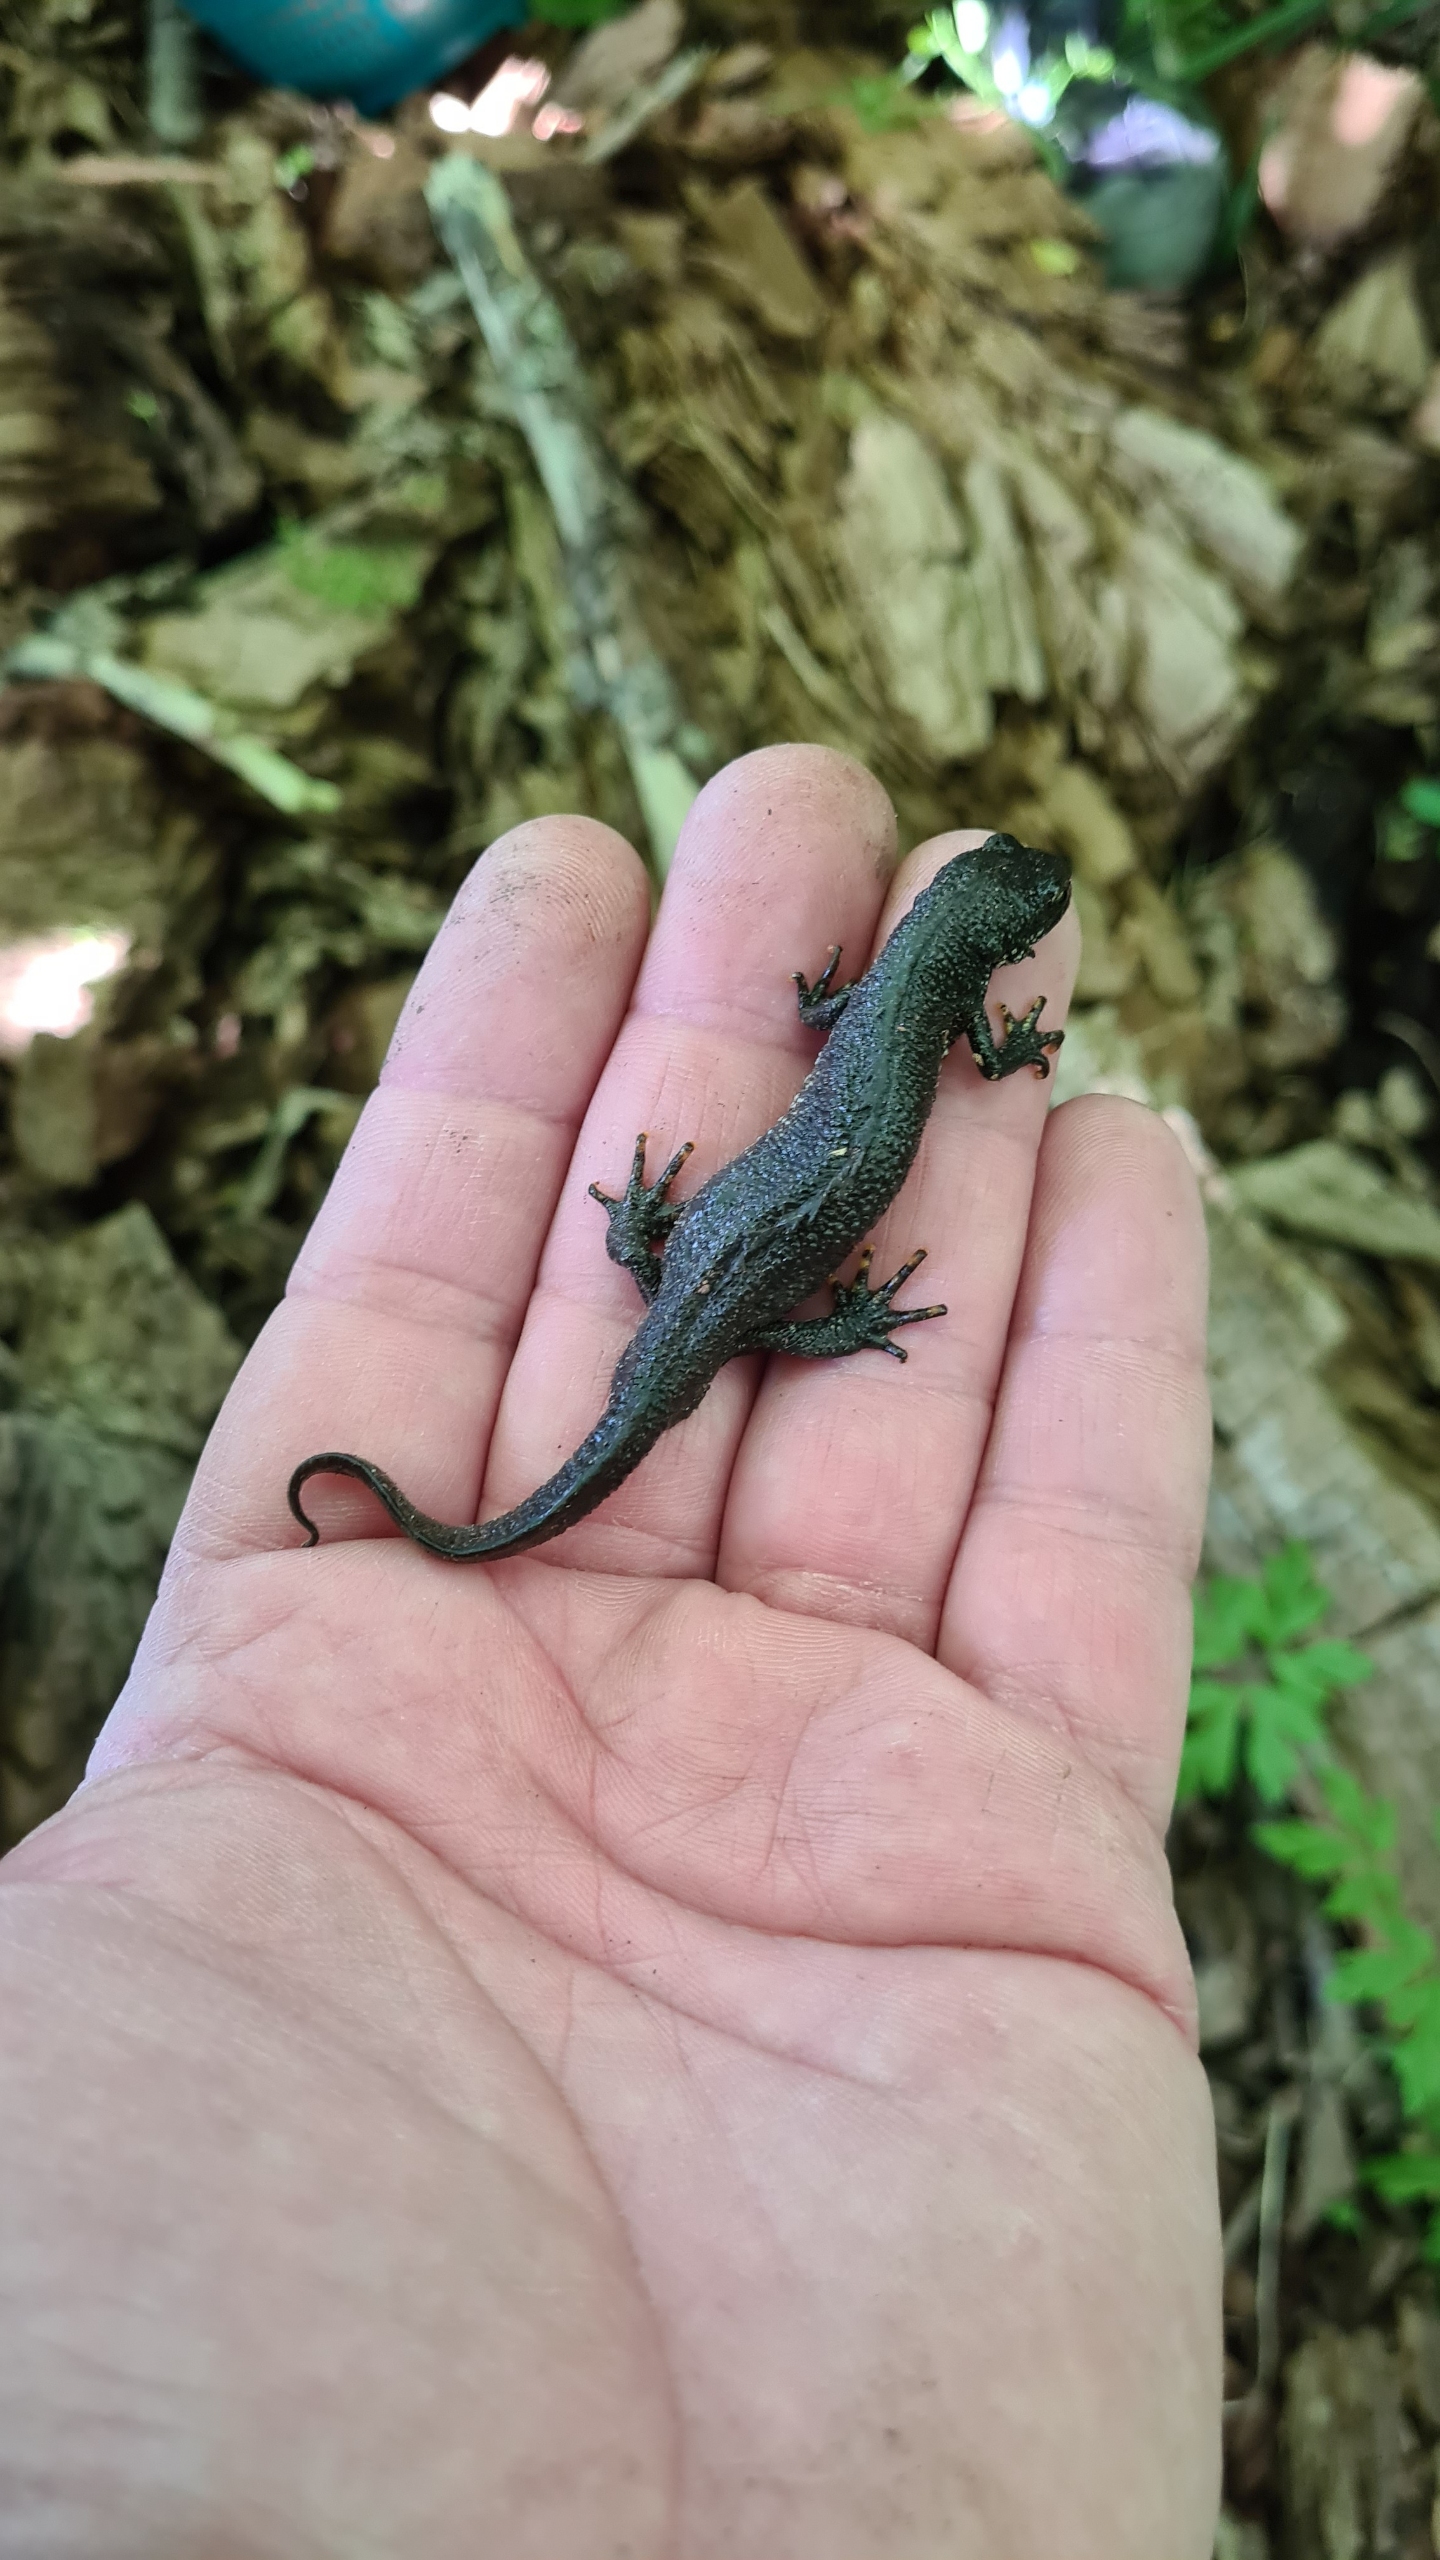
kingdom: Animalia
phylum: Chordata
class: Amphibia
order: Caudata
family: Salamandridae
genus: Triturus
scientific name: Triturus cristatus
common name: Stor vandsalamander
